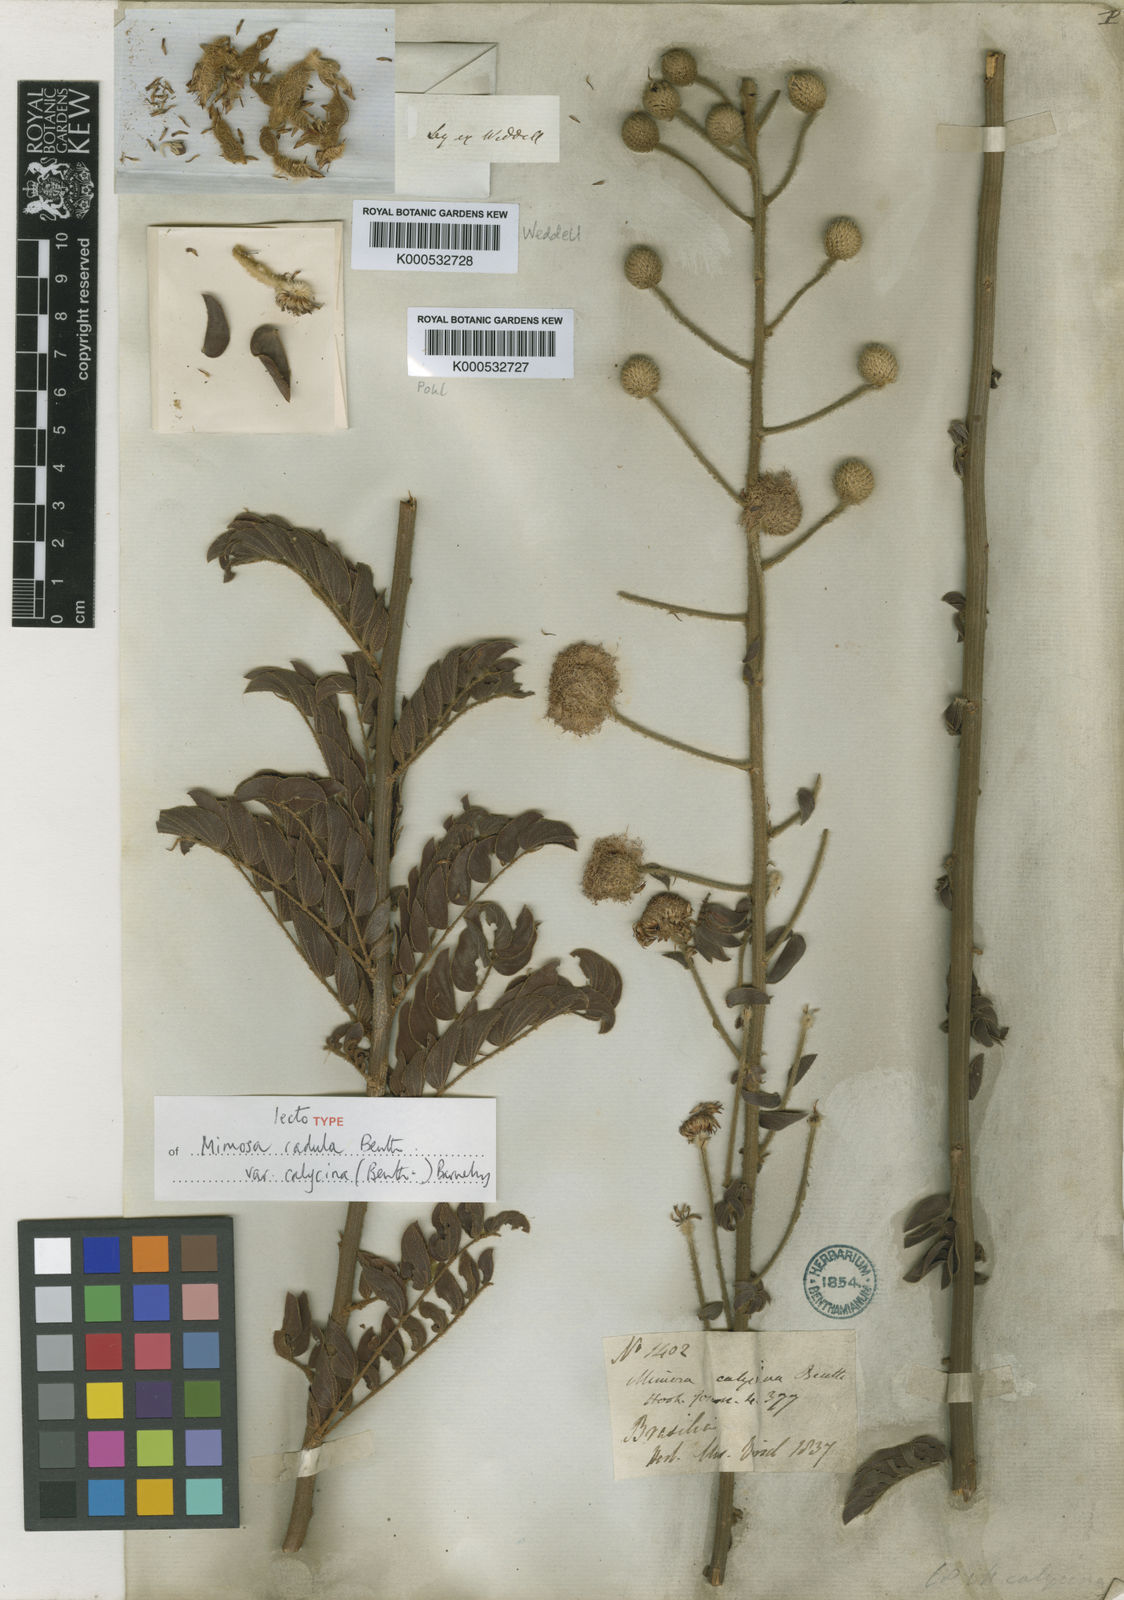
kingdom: Plantae
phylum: Tracheophyta
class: Magnoliopsida
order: Fabales
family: Fabaceae
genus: Mimosa
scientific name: Mimosa radula
